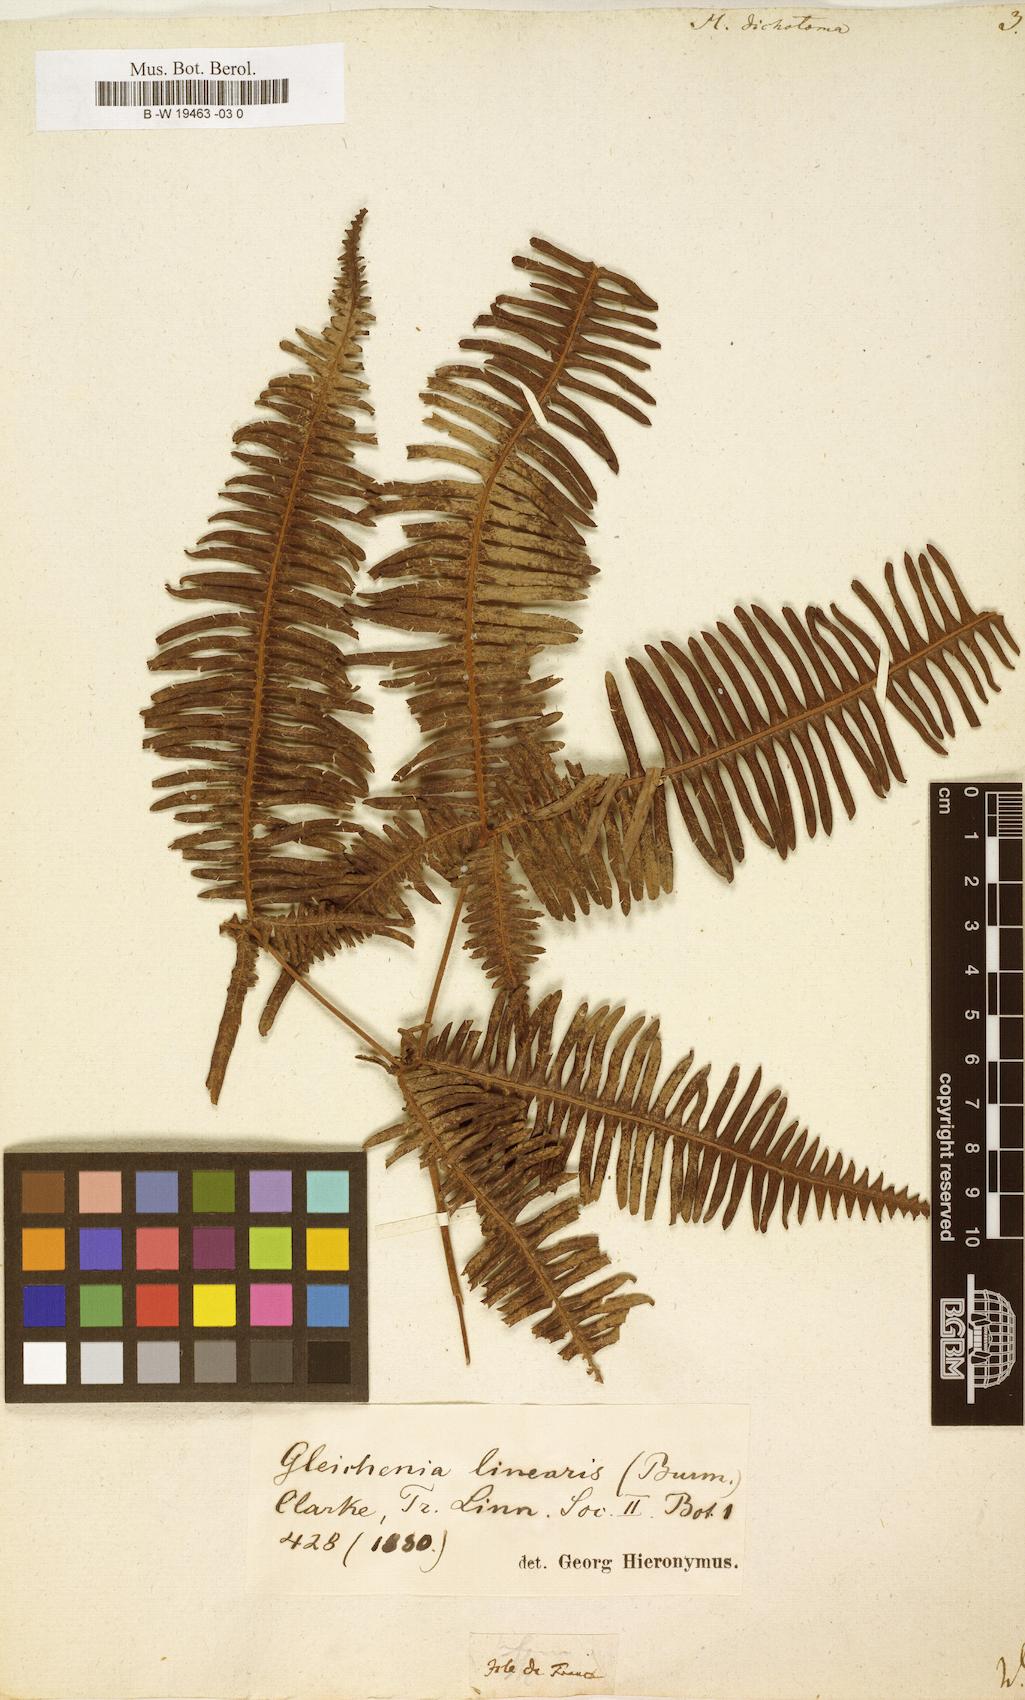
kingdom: Plantae
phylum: Tracheophyta
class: Polypodiopsida
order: Gleicheniales
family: Gleicheniaceae
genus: Dicranopteris
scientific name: Dicranopteris pedata
